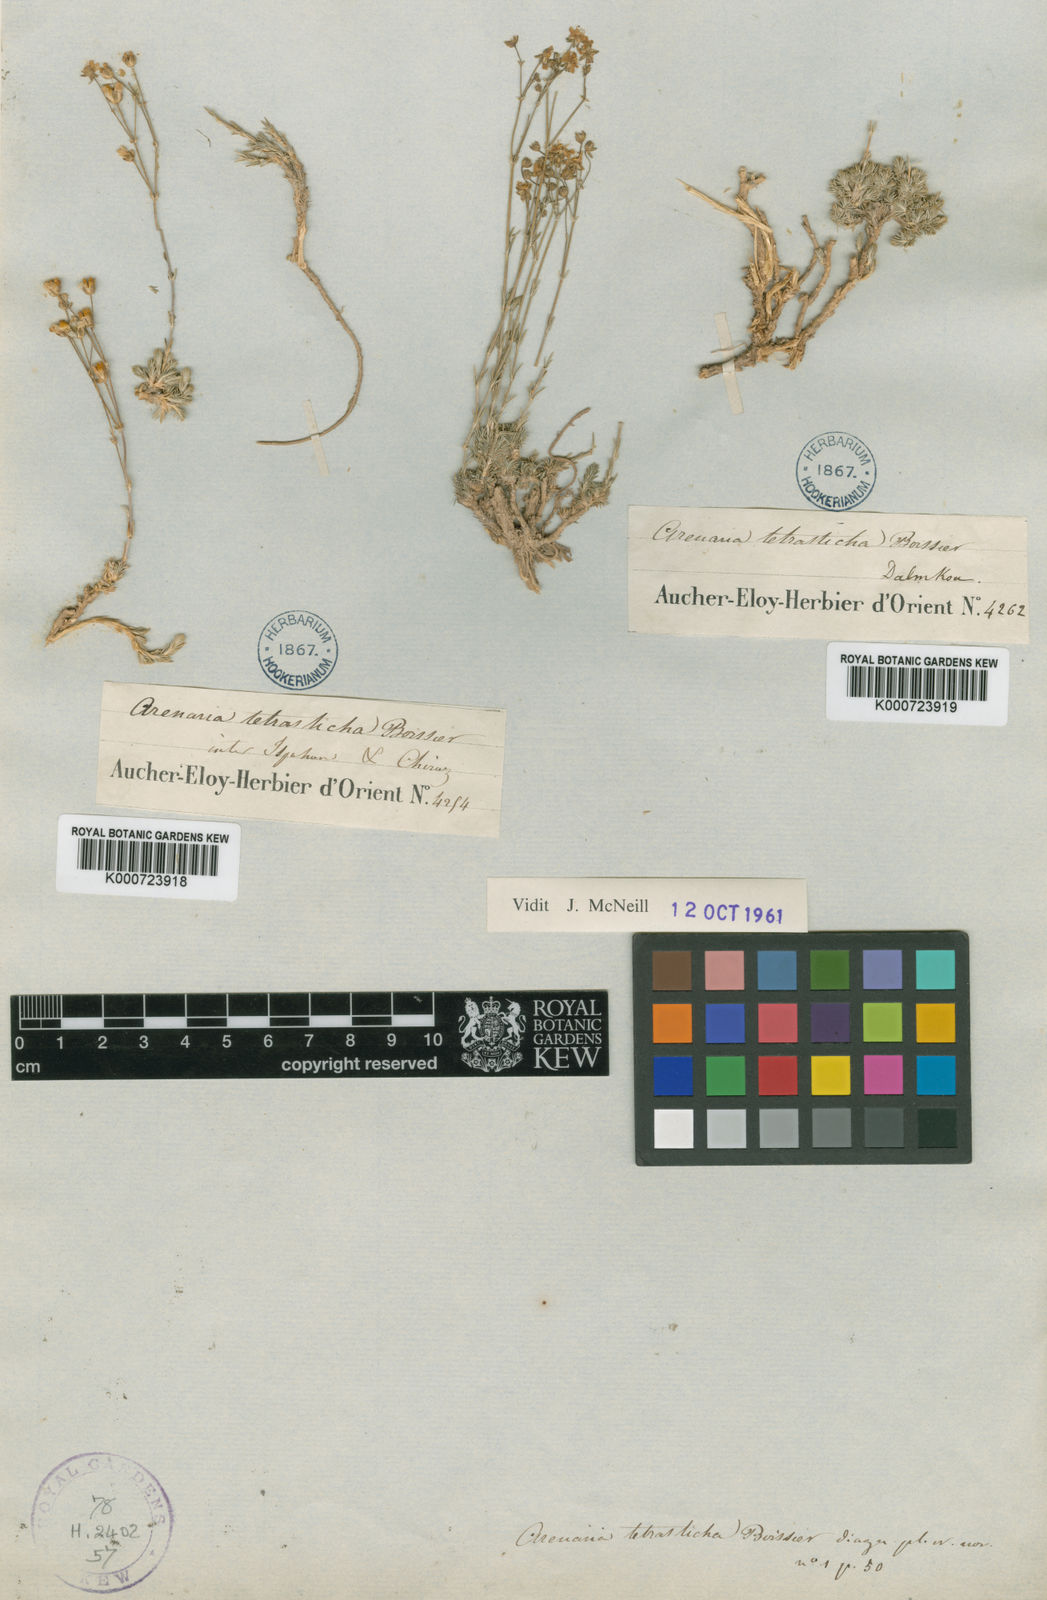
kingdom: Plantae
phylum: Tracheophyta
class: Magnoliopsida
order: Caryophyllales
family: Caryophyllaceae
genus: Eremogone
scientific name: Eremogone tetrasticha
